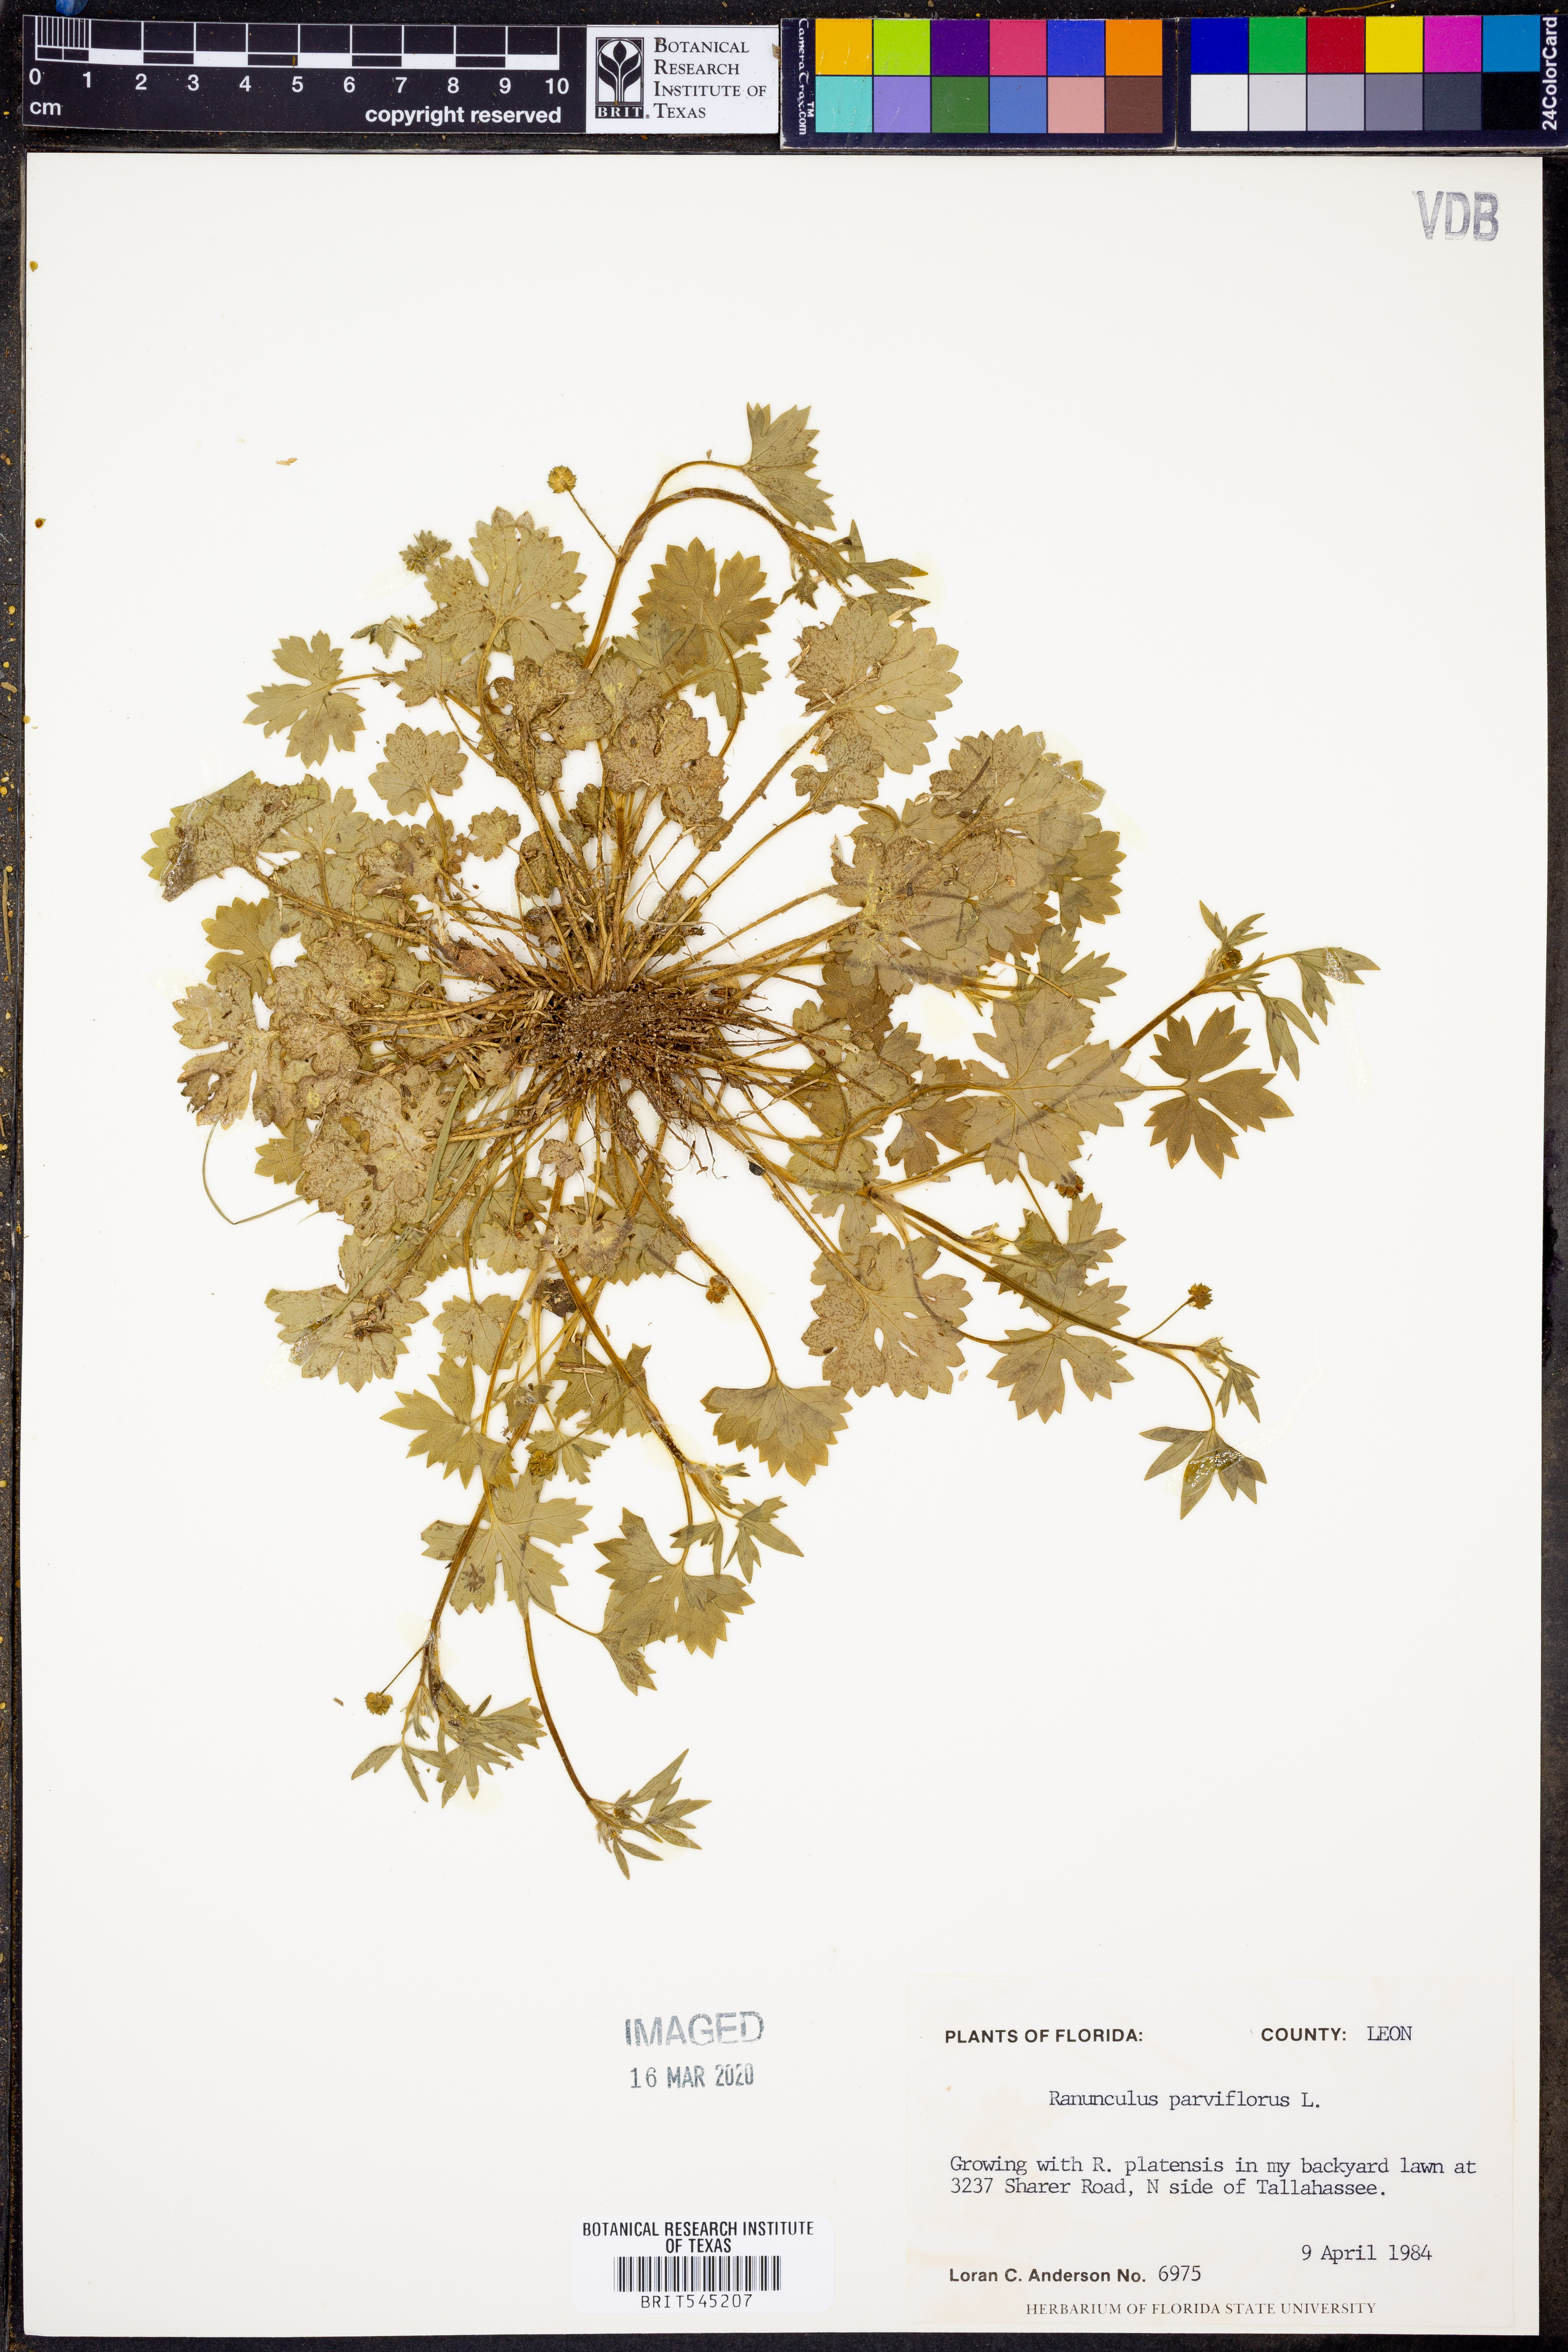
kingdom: Plantae
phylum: Tracheophyta
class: Magnoliopsida
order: Ranunculales
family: Ranunculaceae
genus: Ranunculus
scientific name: Ranunculus parviflorus
